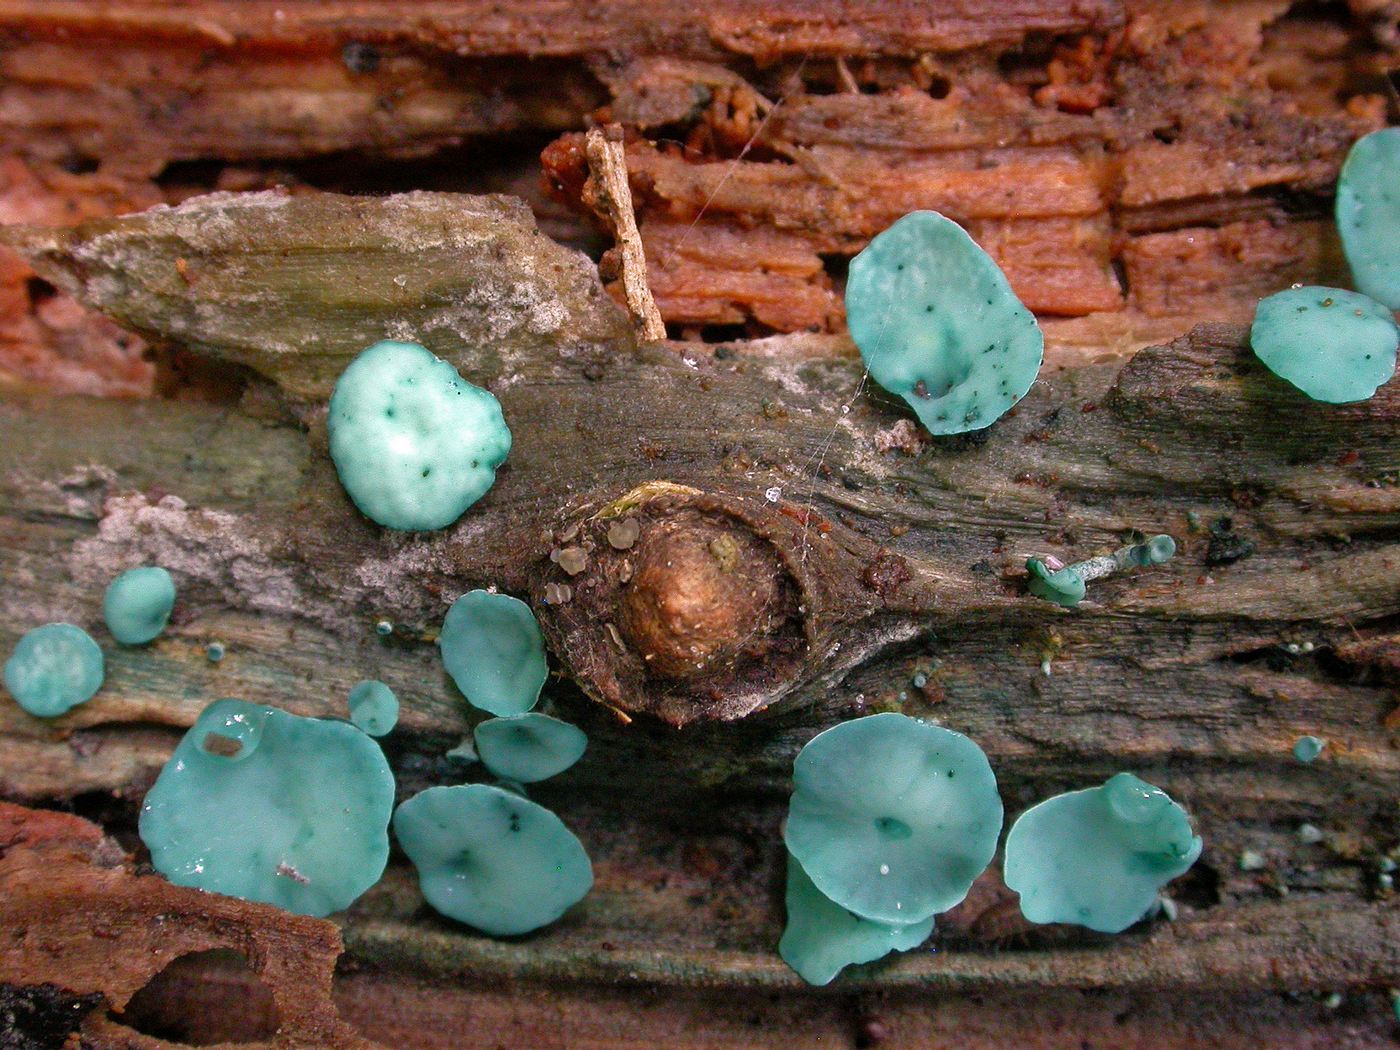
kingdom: Fungi
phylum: Ascomycota
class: Leotiomycetes
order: Helotiales
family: Chlorociboriaceae
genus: Chlorociboria
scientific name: Chlorociboria aeruginascens
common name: almindelig grønskive
